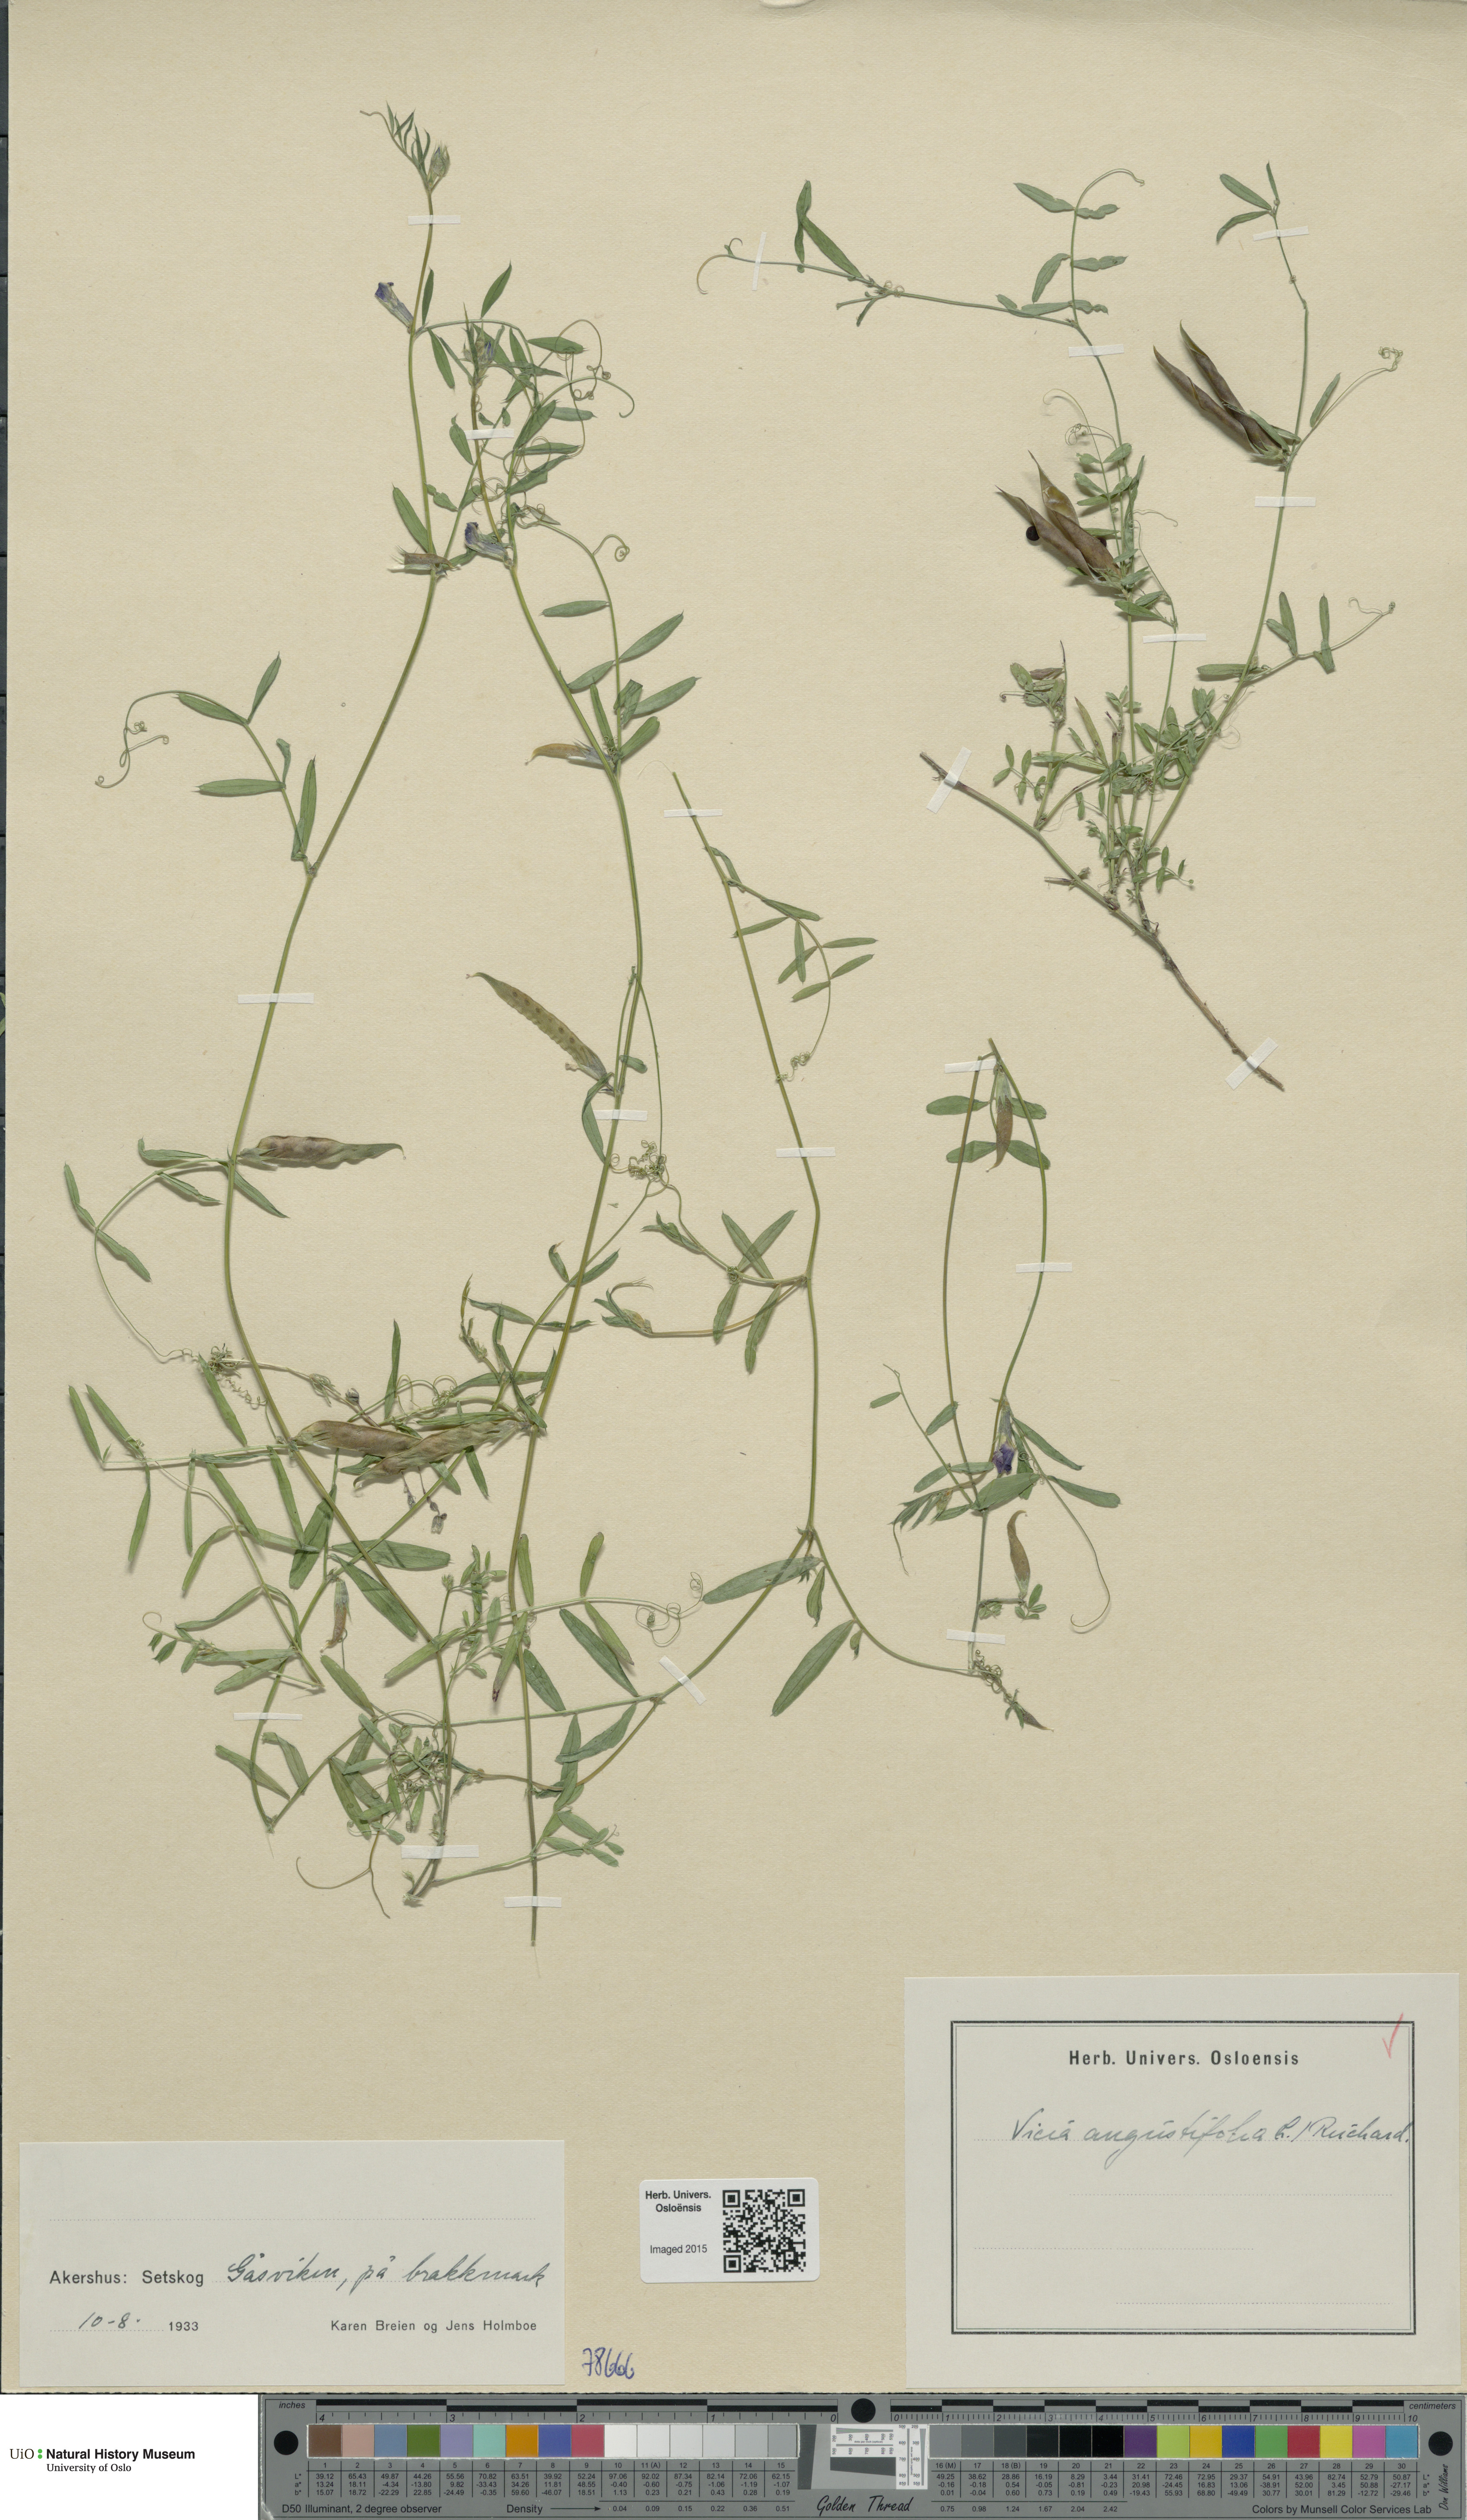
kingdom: Plantae
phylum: Tracheophyta
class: Magnoliopsida
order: Fabales
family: Fabaceae
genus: Vicia
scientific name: Vicia sativa
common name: Garden vetch
